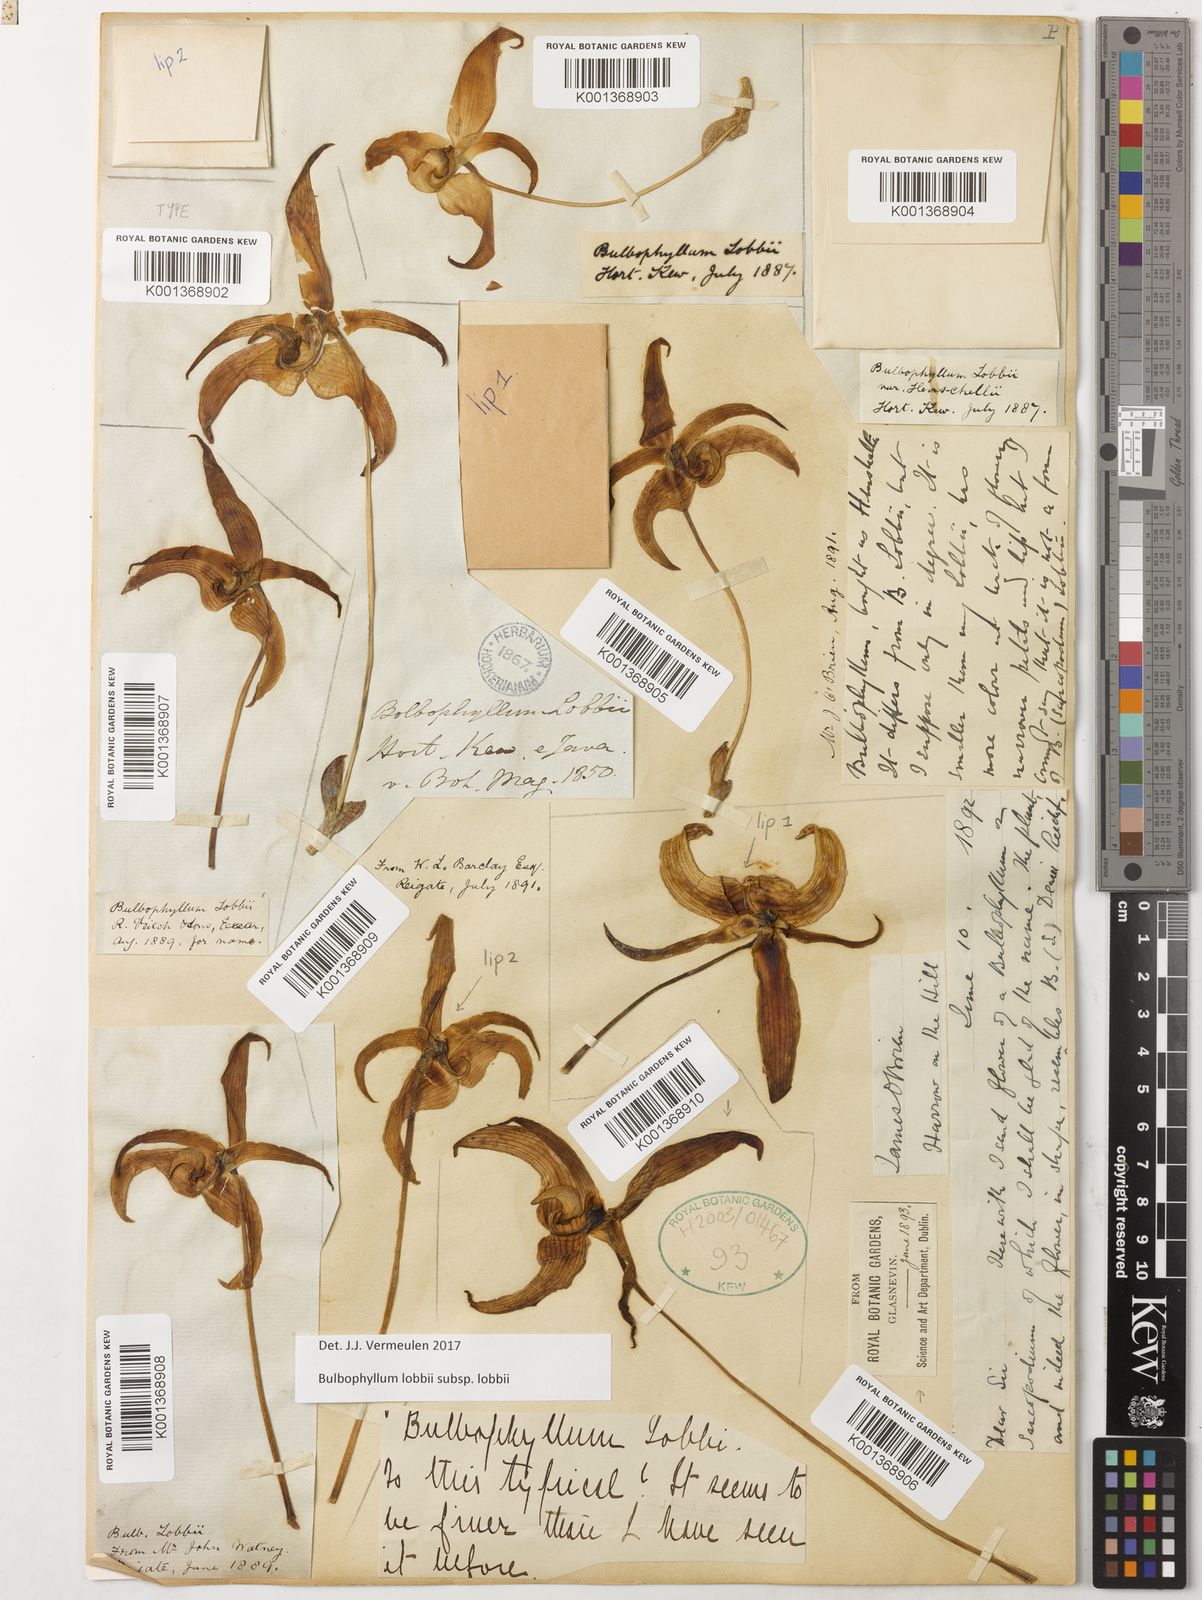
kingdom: Plantae
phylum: Tracheophyta
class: Liliopsida
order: Asparagales
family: Orchidaceae
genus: Bulbophyllum
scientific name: Bulbophyllum lobbii
